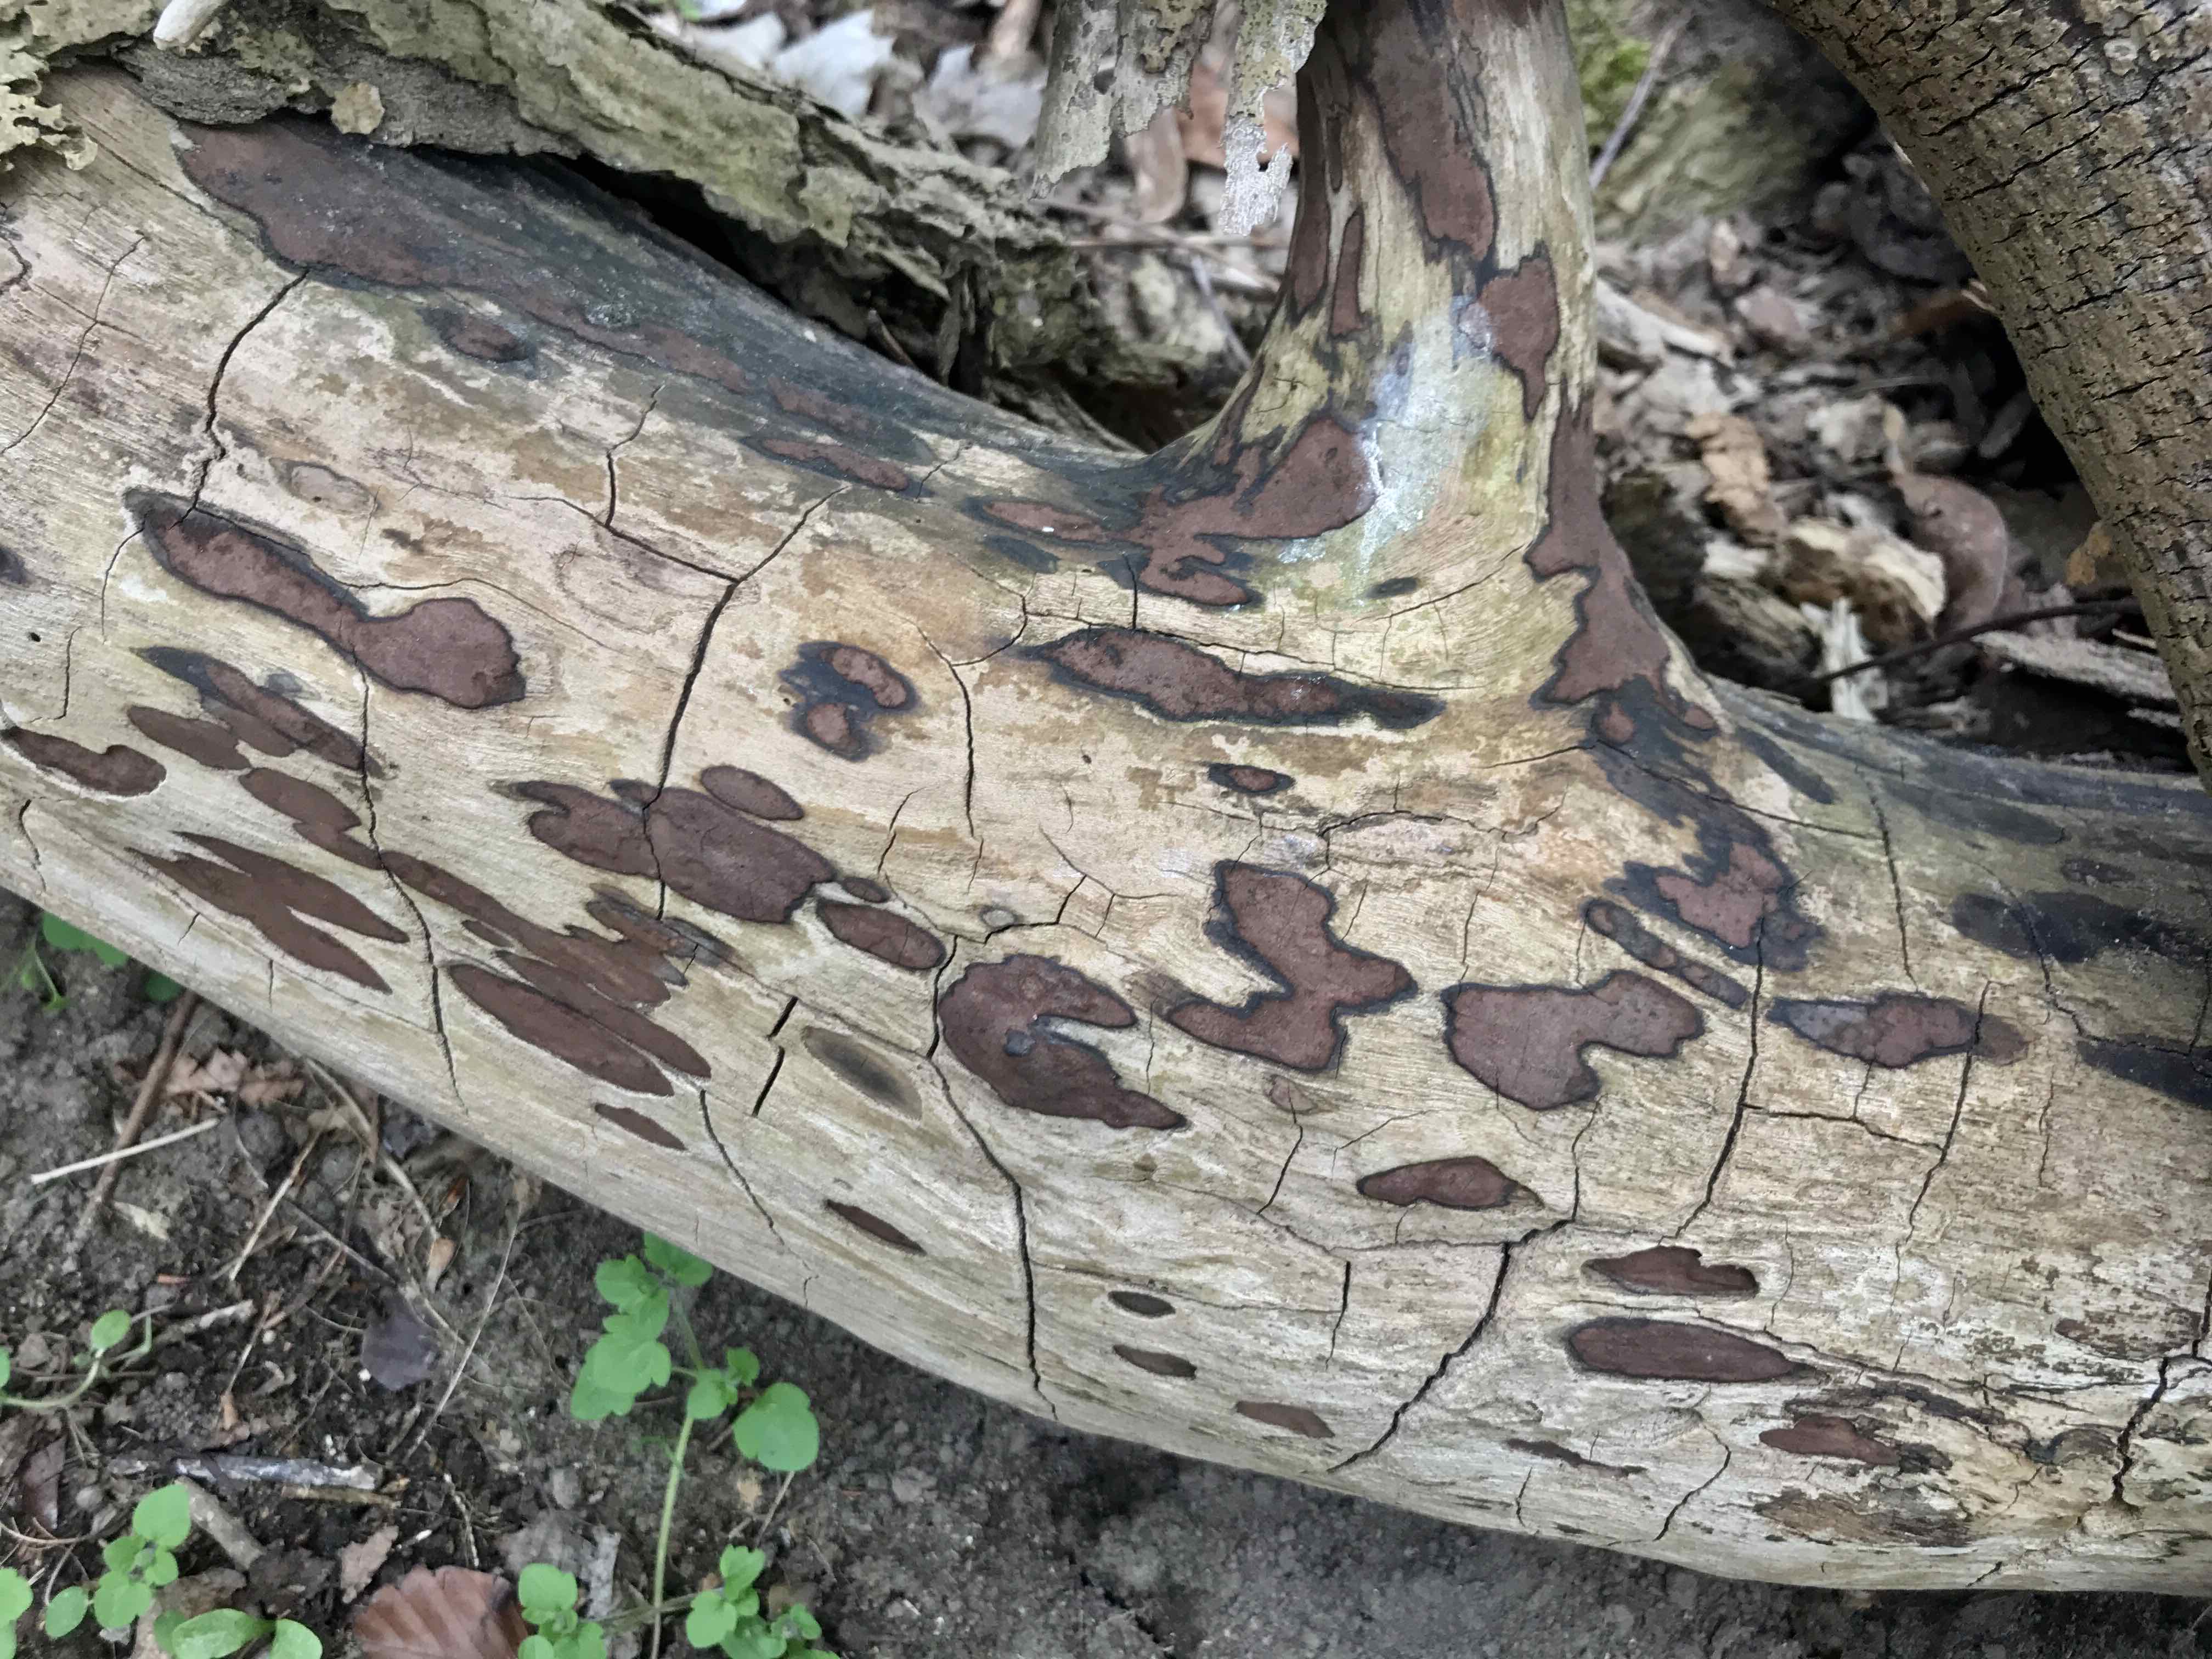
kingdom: Fungi
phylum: Ascomycota
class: Sordariomycetes
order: Xylariales
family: Hypoxylaceae
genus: Hypoxylon
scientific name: Hypoxylon petriniae
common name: nedsænket kulbær
